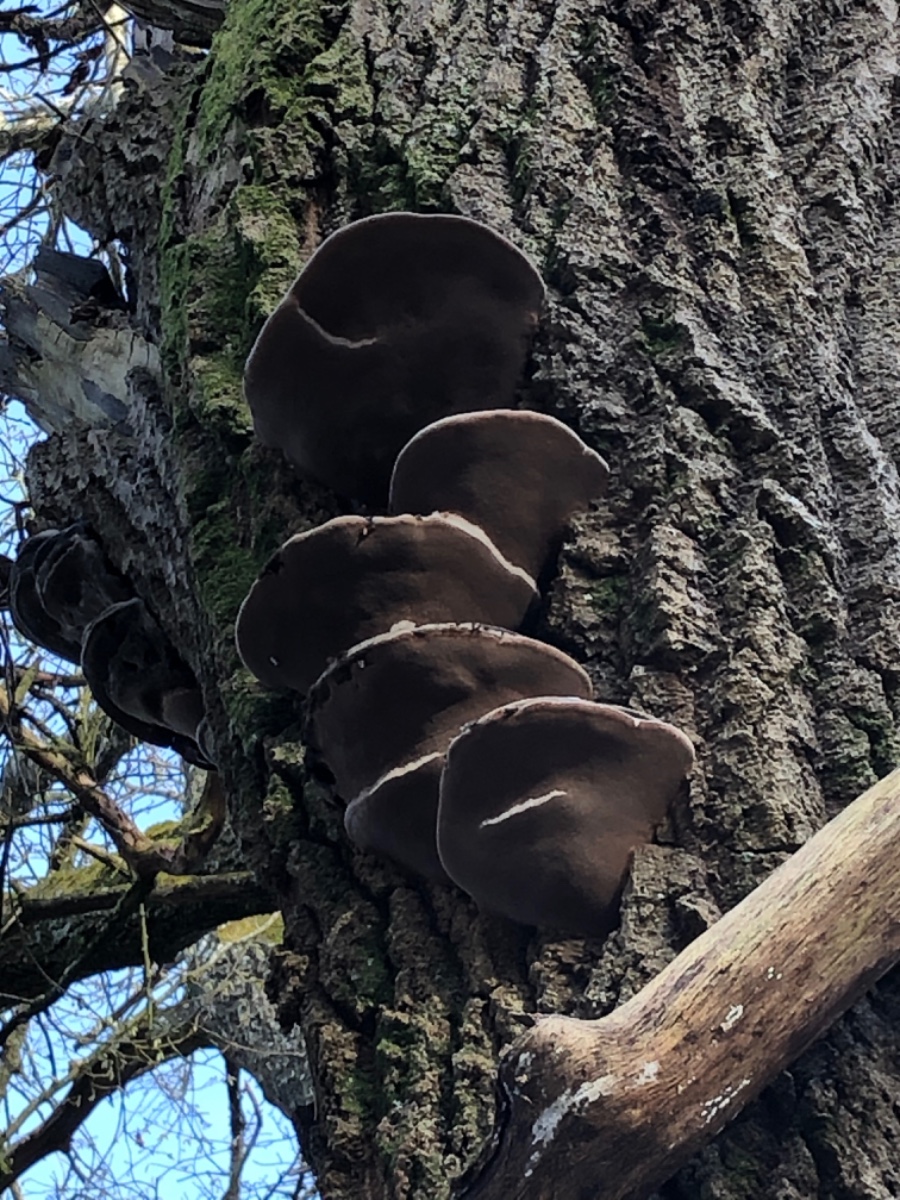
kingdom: Fungi
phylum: Basidiomycota
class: Agaricomycetes
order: Hymenochaetales
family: Hymenochaetaceae
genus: Phellinus
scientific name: Phellinus populicola
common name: poppel-ildporesvamp
